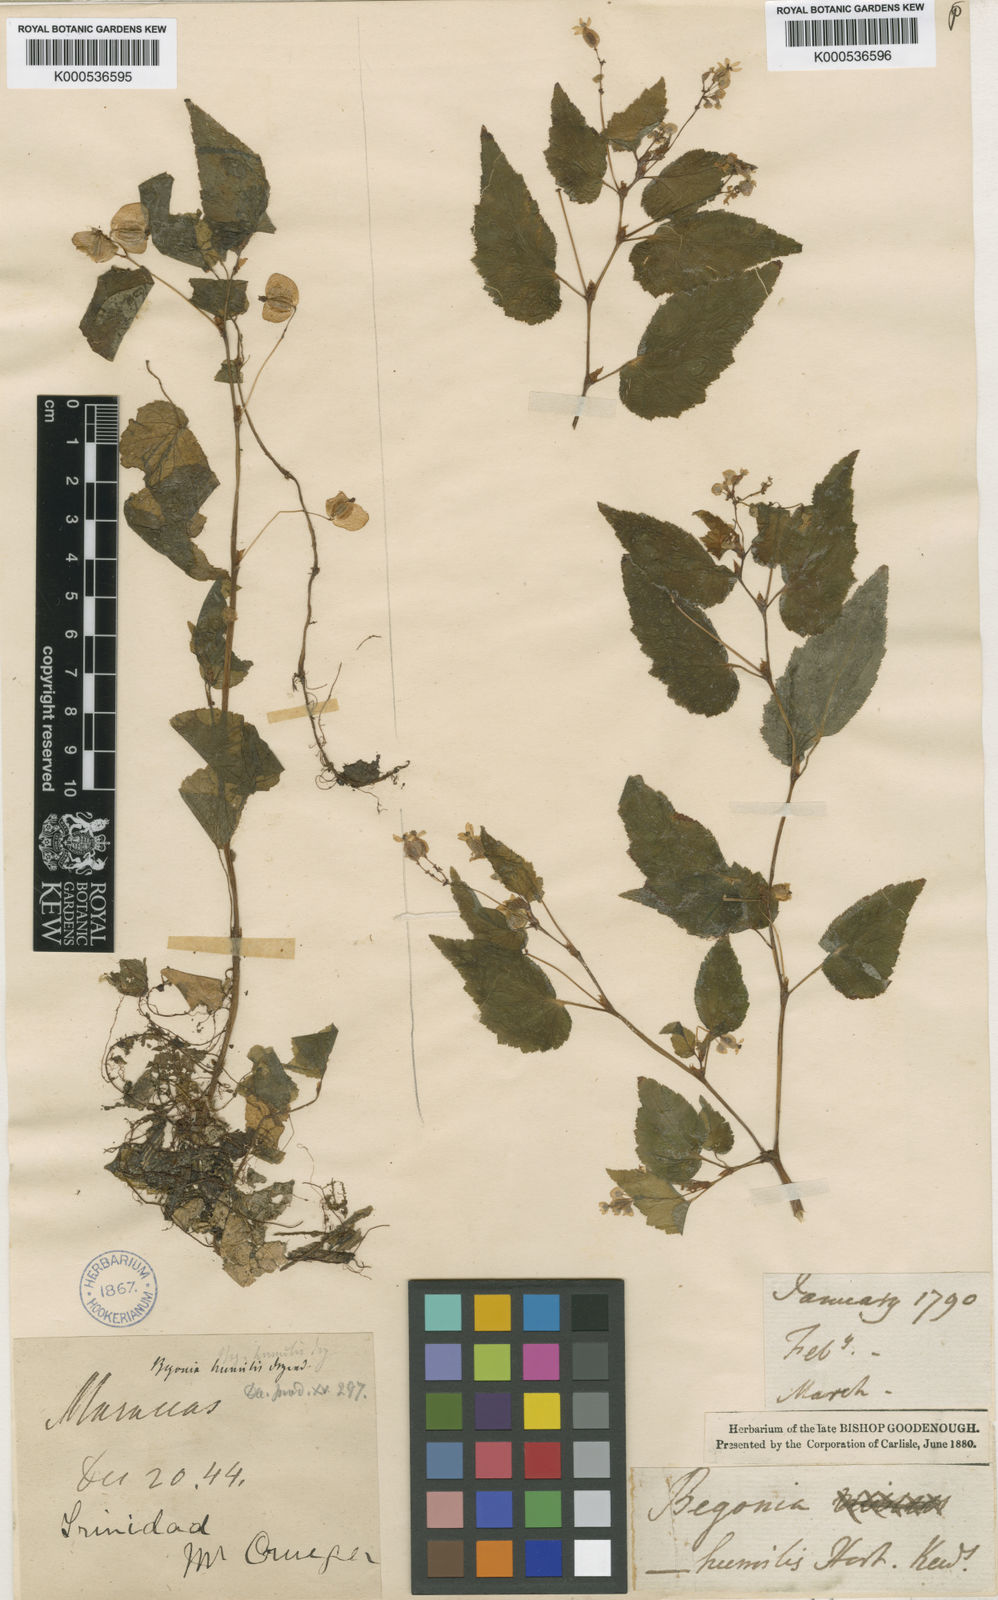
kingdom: Plantae
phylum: Tracheophyta
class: Magnoliopsida
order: Cucurbitales
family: Begoniaceae
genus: Begonia
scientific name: Begonia
